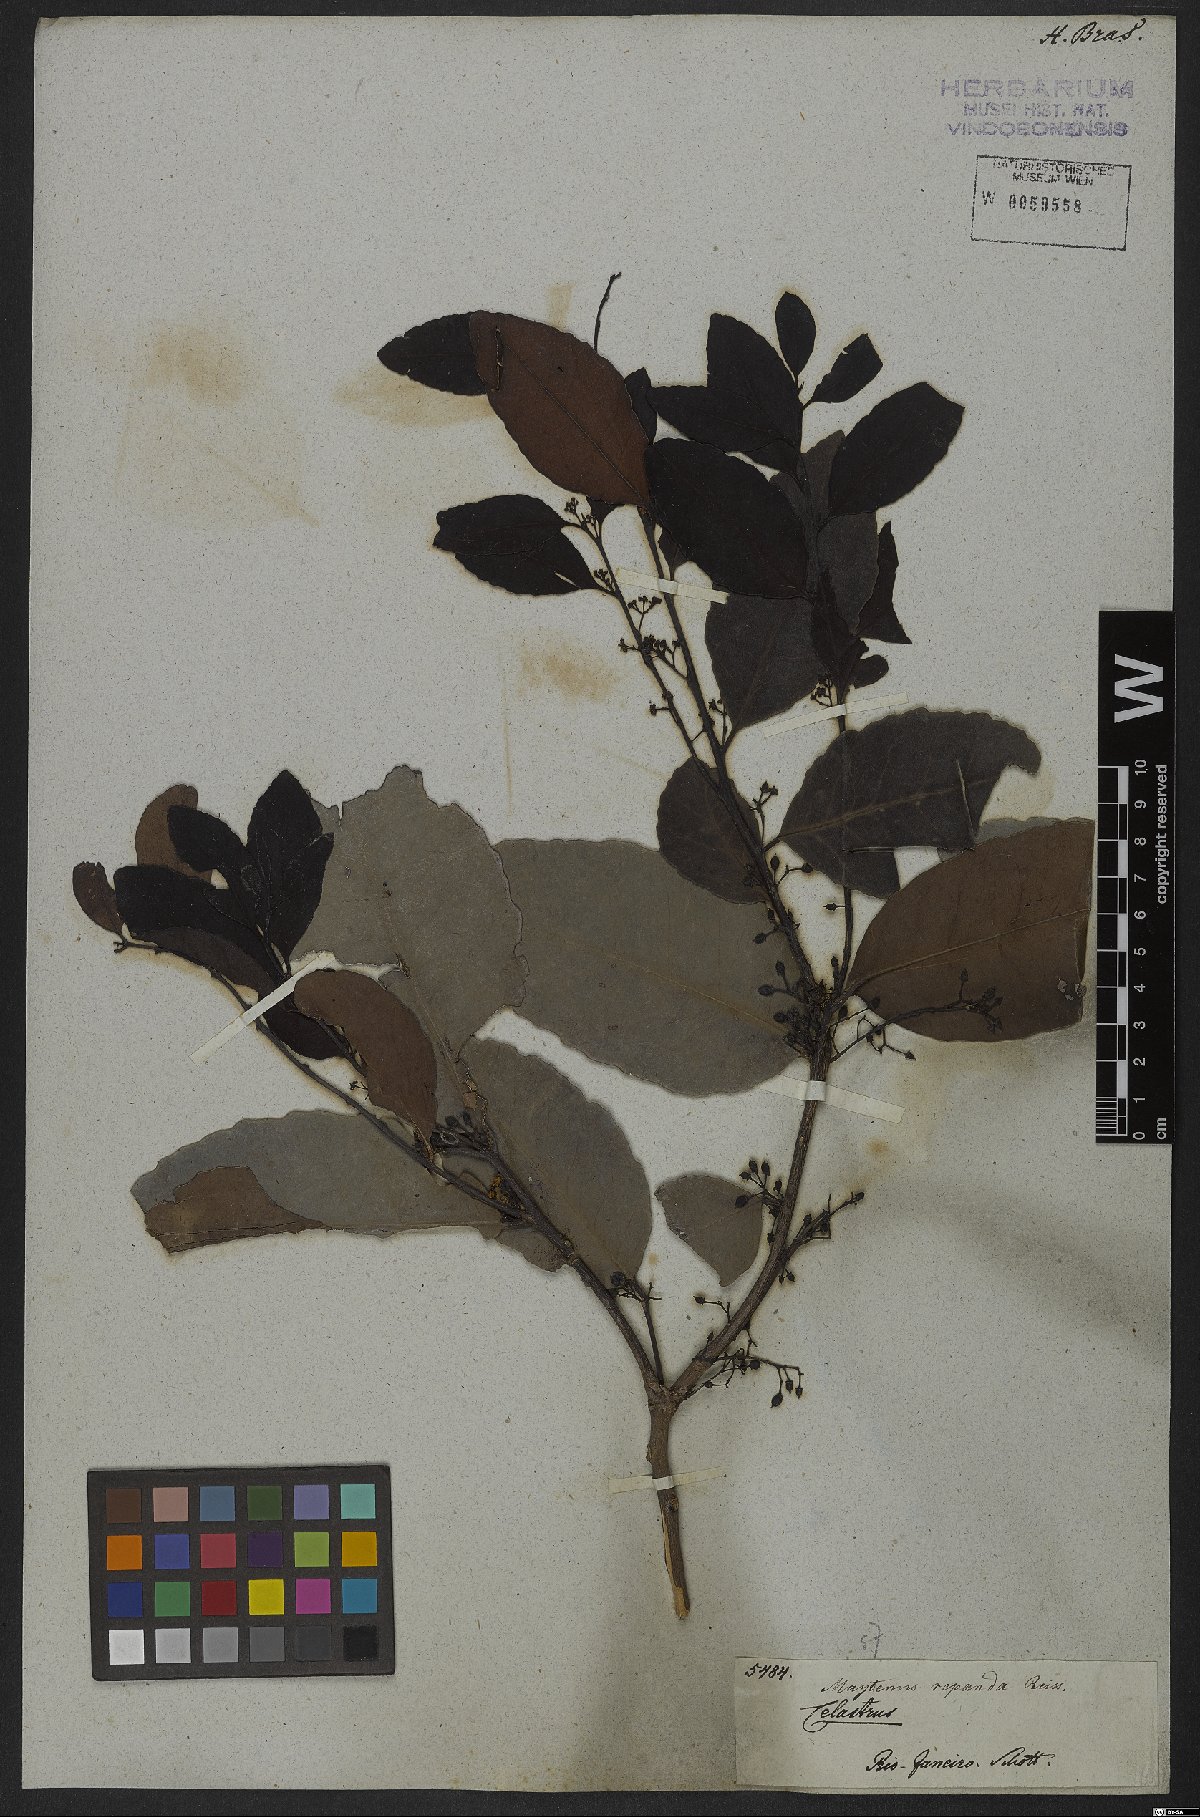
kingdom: Plantae
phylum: Tracheophyta
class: Magnoliopsida
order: Celastrales
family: Celastraceae
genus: Monteverdia
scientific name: Monteverdia myrsinoides
